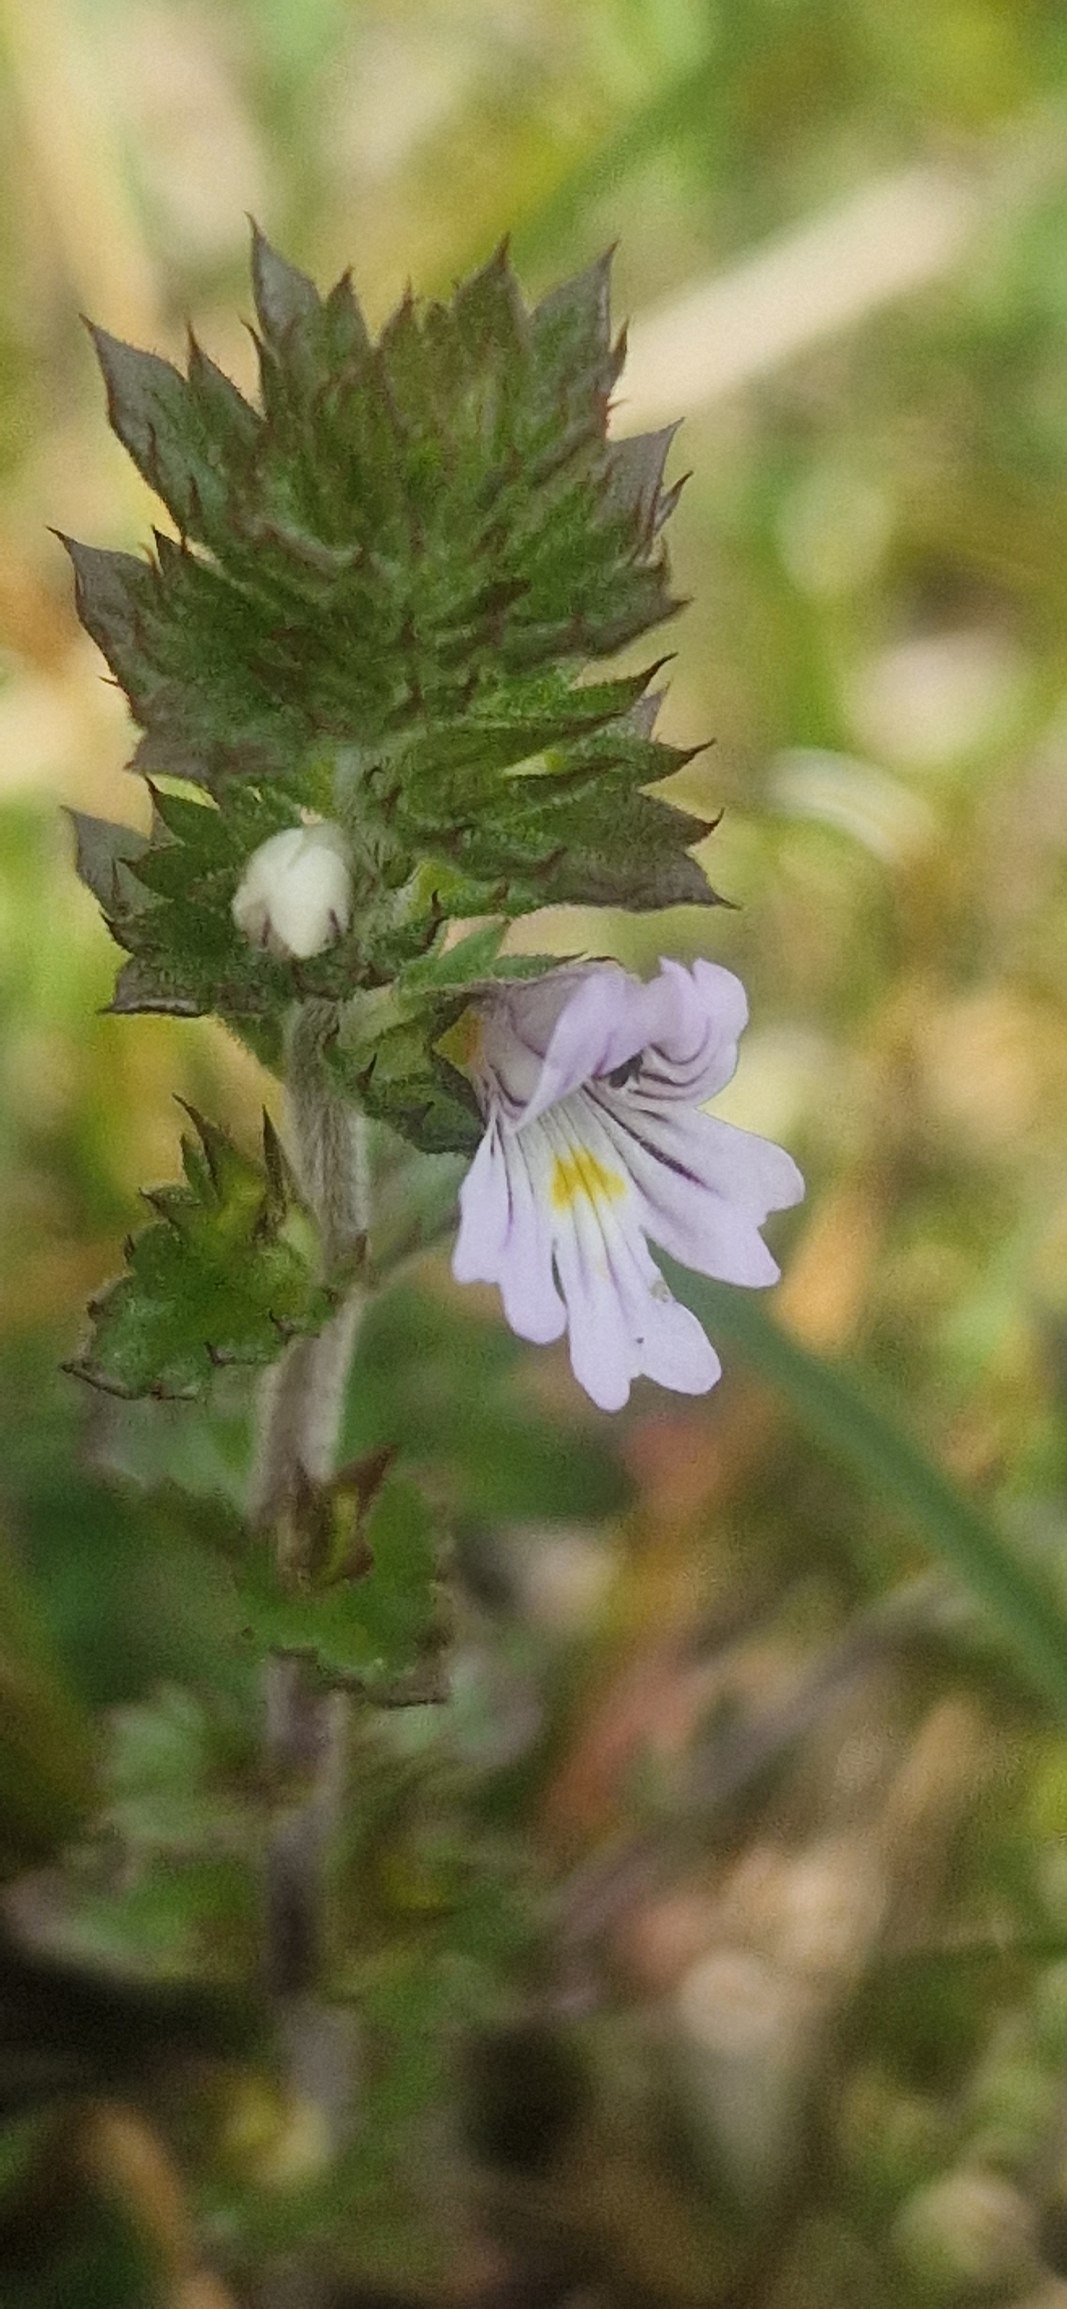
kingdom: Plantae
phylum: Tracheophyta
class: Magnoliopsida
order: Lamiales
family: Orobanchaceae
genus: Euphrasia
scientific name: Euphrasia vernalis
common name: Kirtel-øjentrøst
